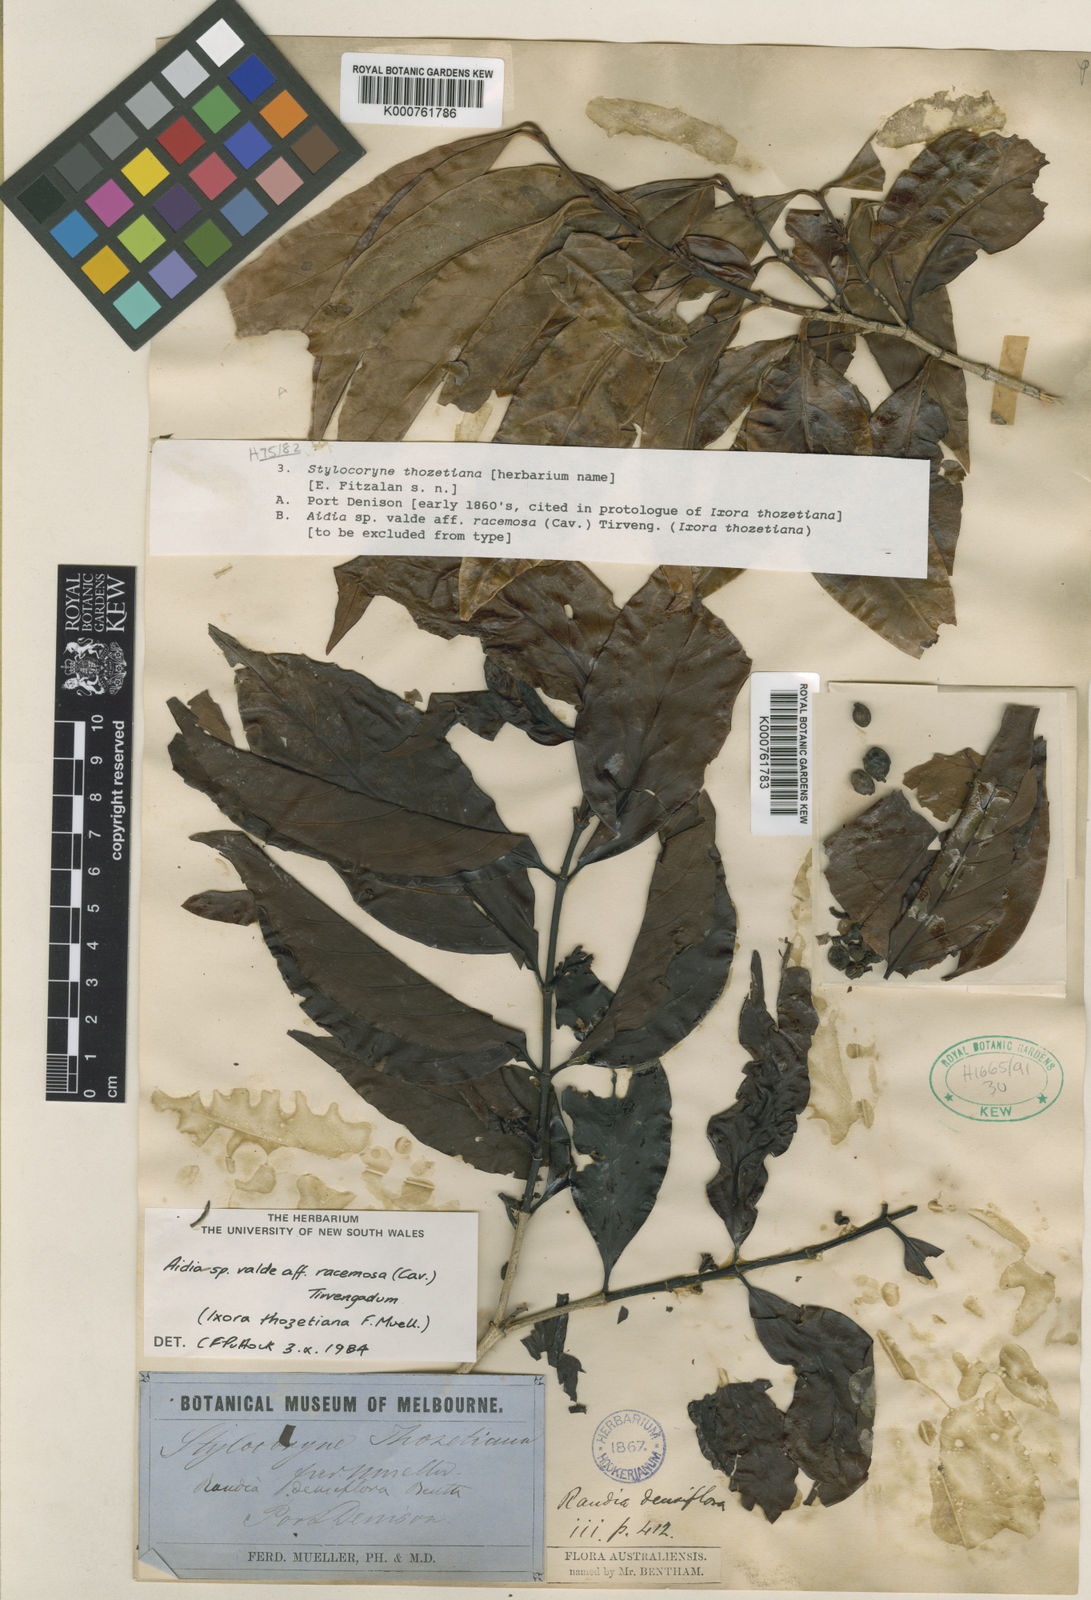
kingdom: Plantae
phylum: Tracheophyta
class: Magnoliopsida
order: Gentianales
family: Rubiaceae
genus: Aidia
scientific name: Aidia racemosa
